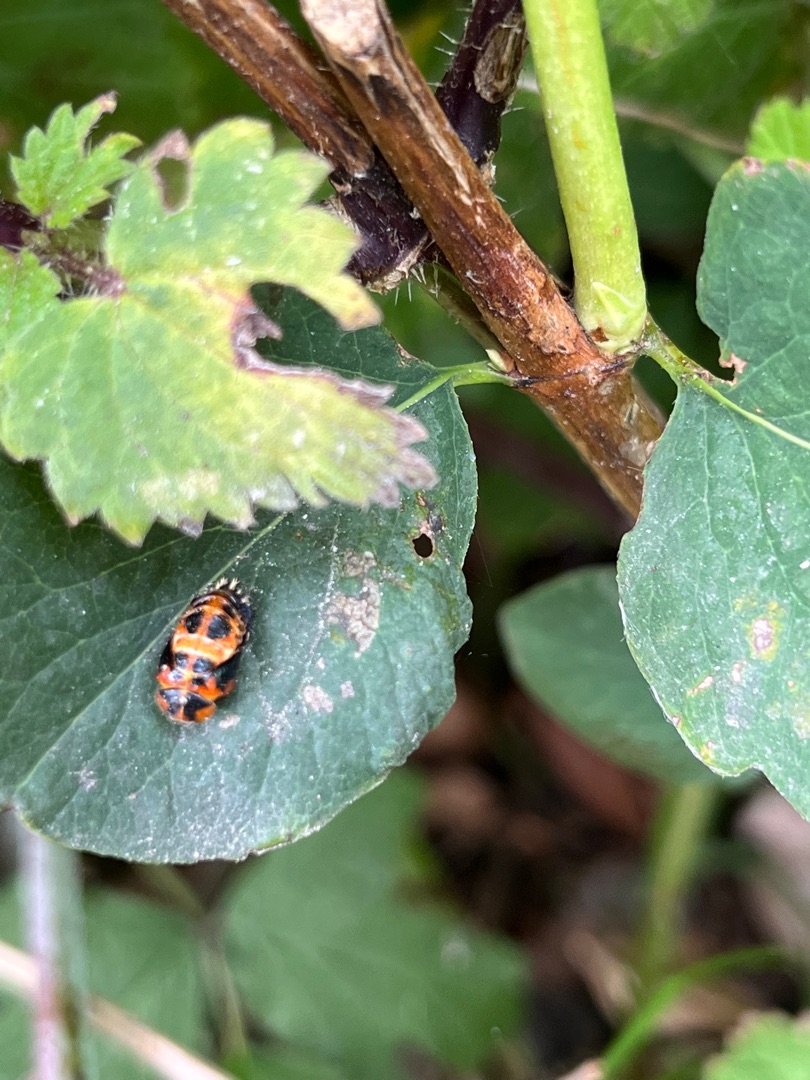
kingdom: Animalia
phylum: Arthropoda
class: Insecta
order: Coleoptera
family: Coccinellidae
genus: Harmonia
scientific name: Harmonia axyridis
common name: Harlekinmariehøne
